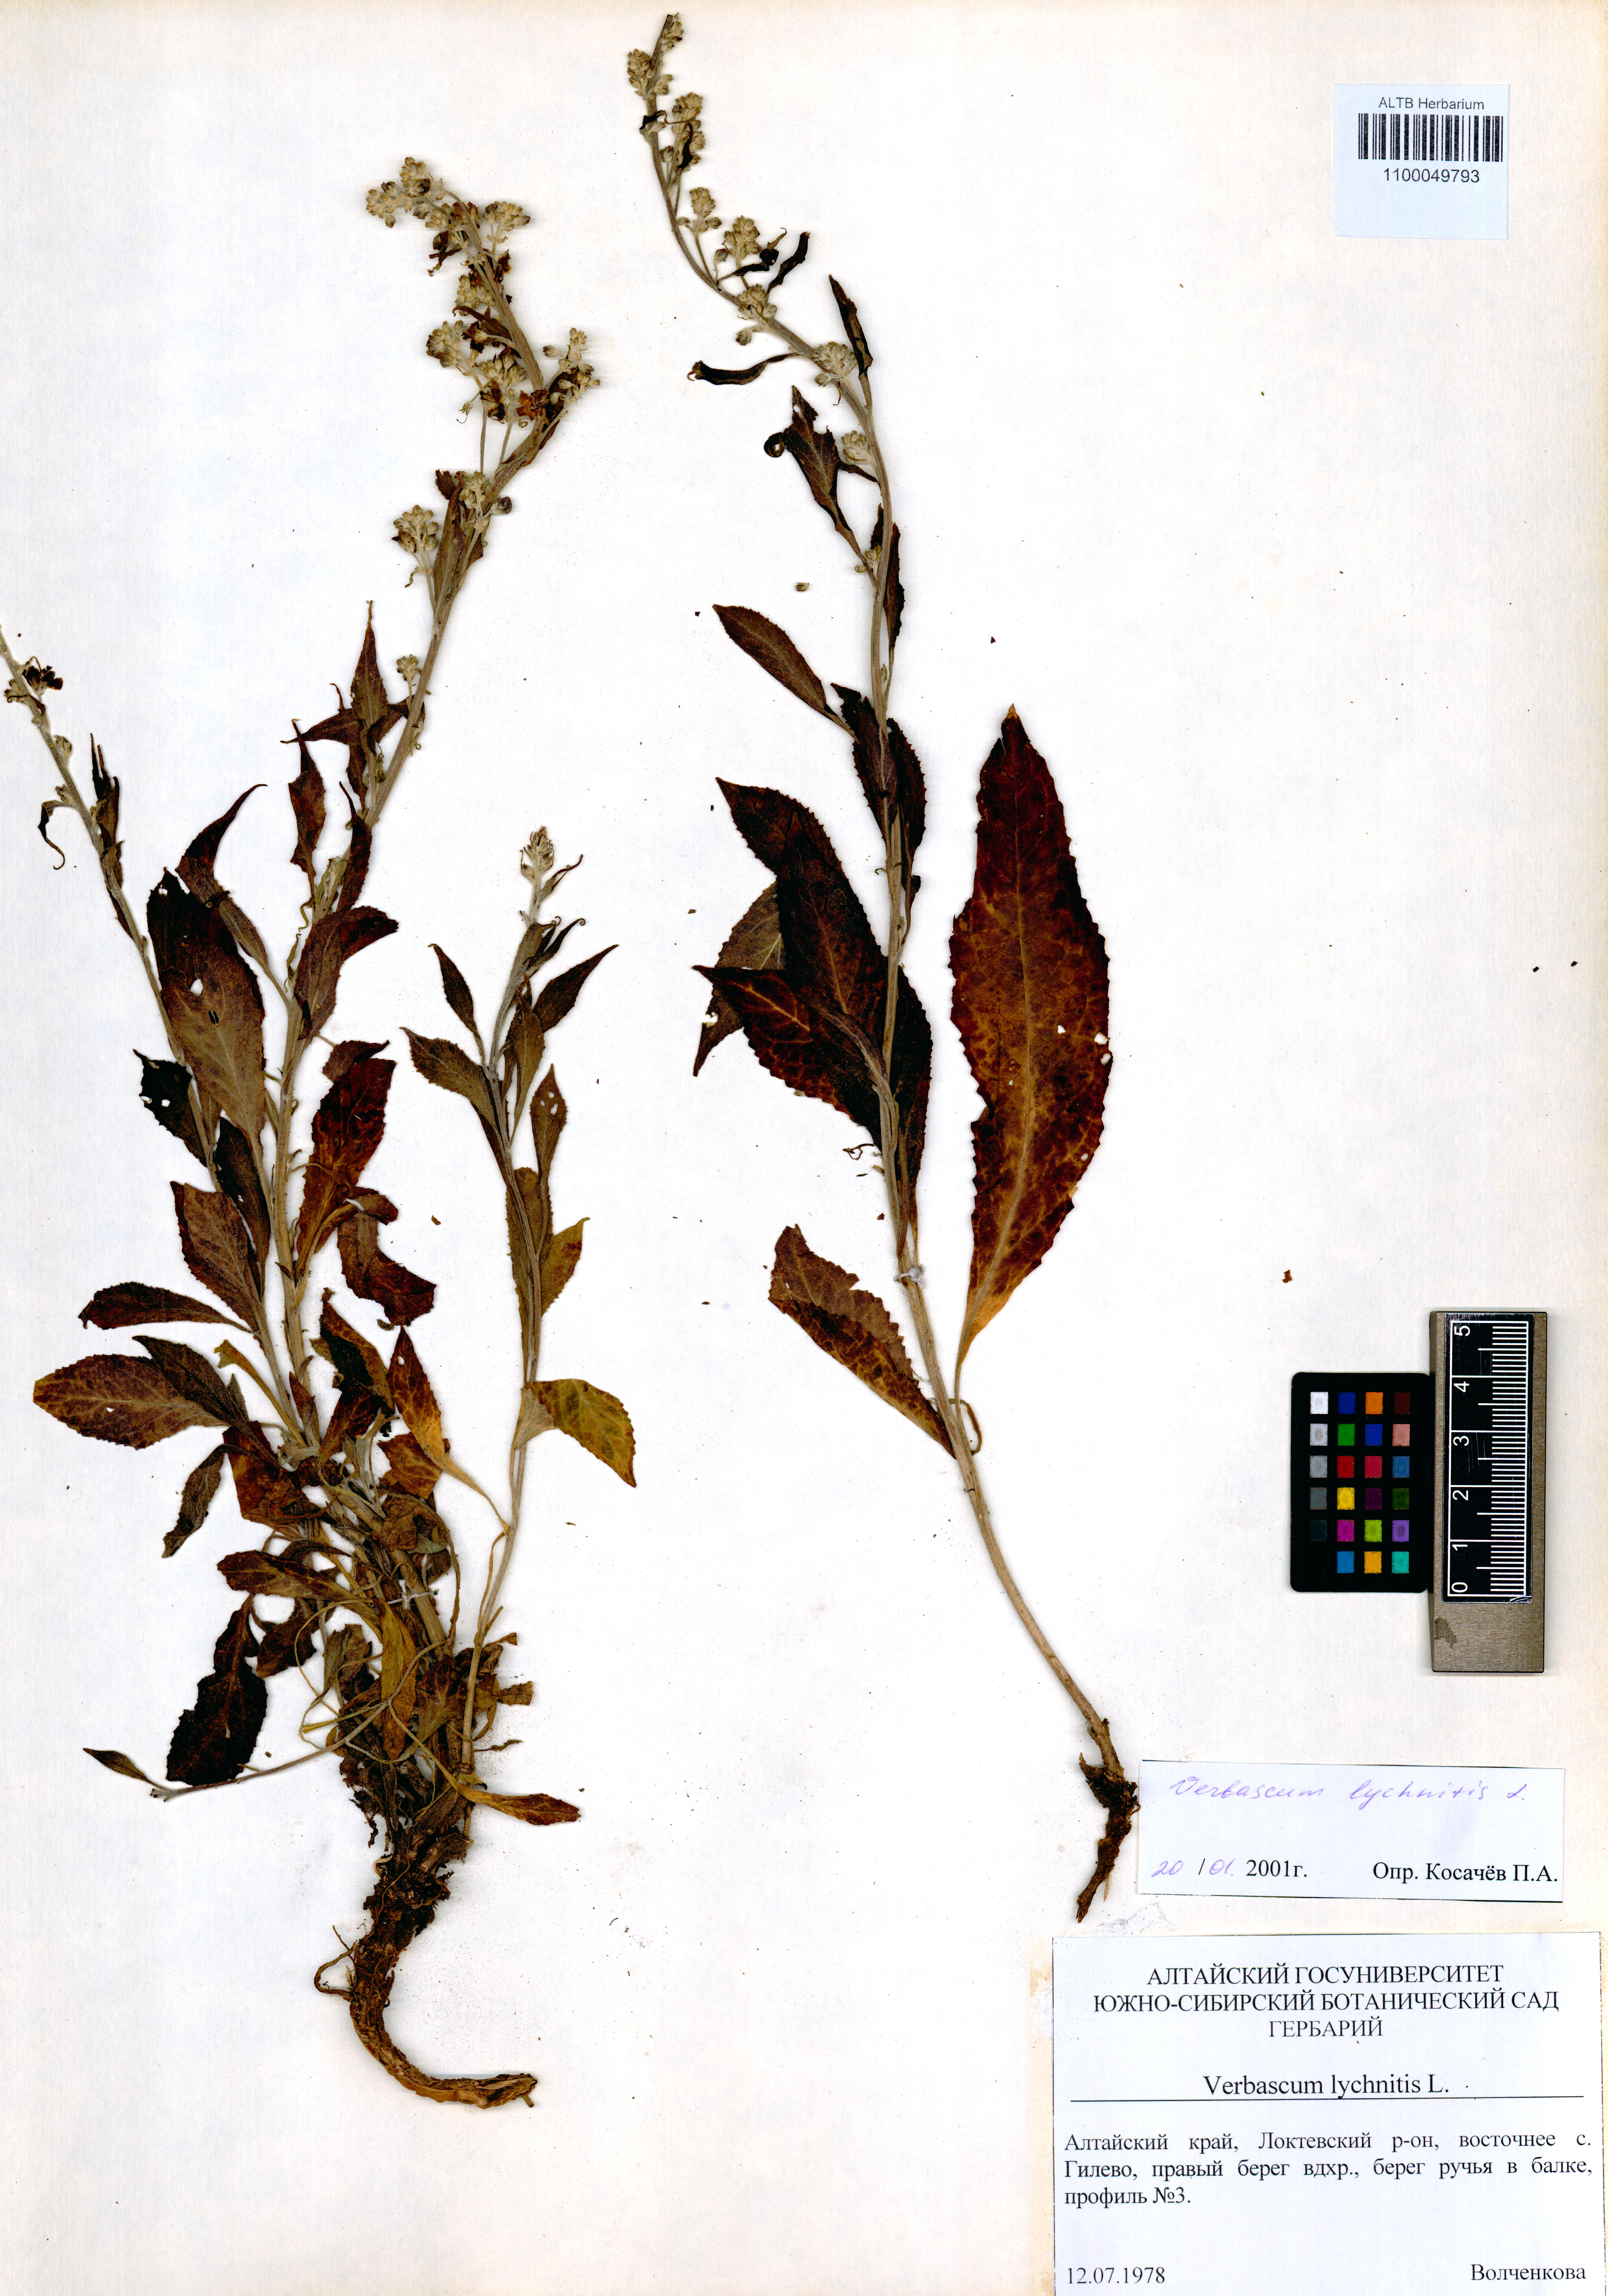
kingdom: Plantae
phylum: Tracheophyta
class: Magnoliopsida
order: Lamiales
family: Scrophulariaceae
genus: Verbascum
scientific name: Verbascum lychnitis
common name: White mullein
